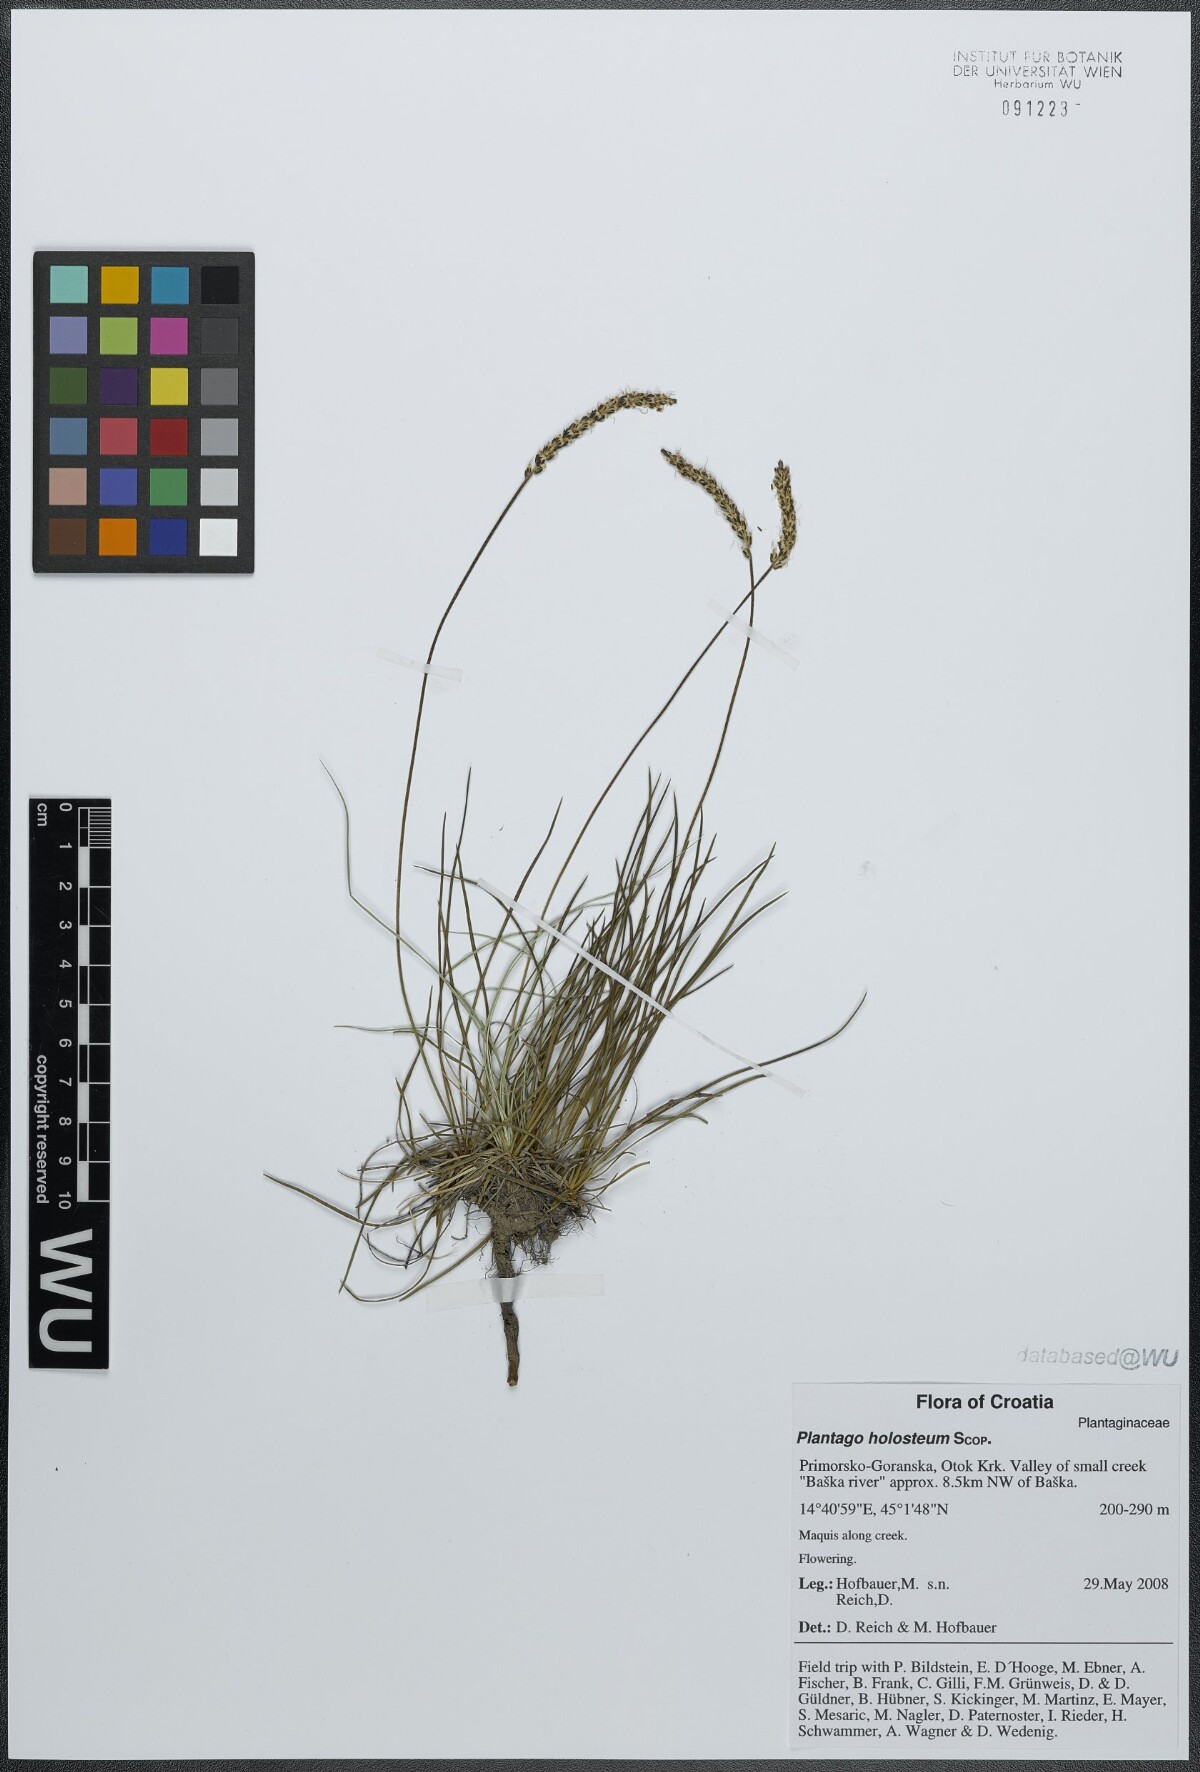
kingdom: Plantae
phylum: Tracheophyta
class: Magnoliopsida
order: Lamiales
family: Plantaginaceae
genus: Plantago
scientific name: Plantago subulata
